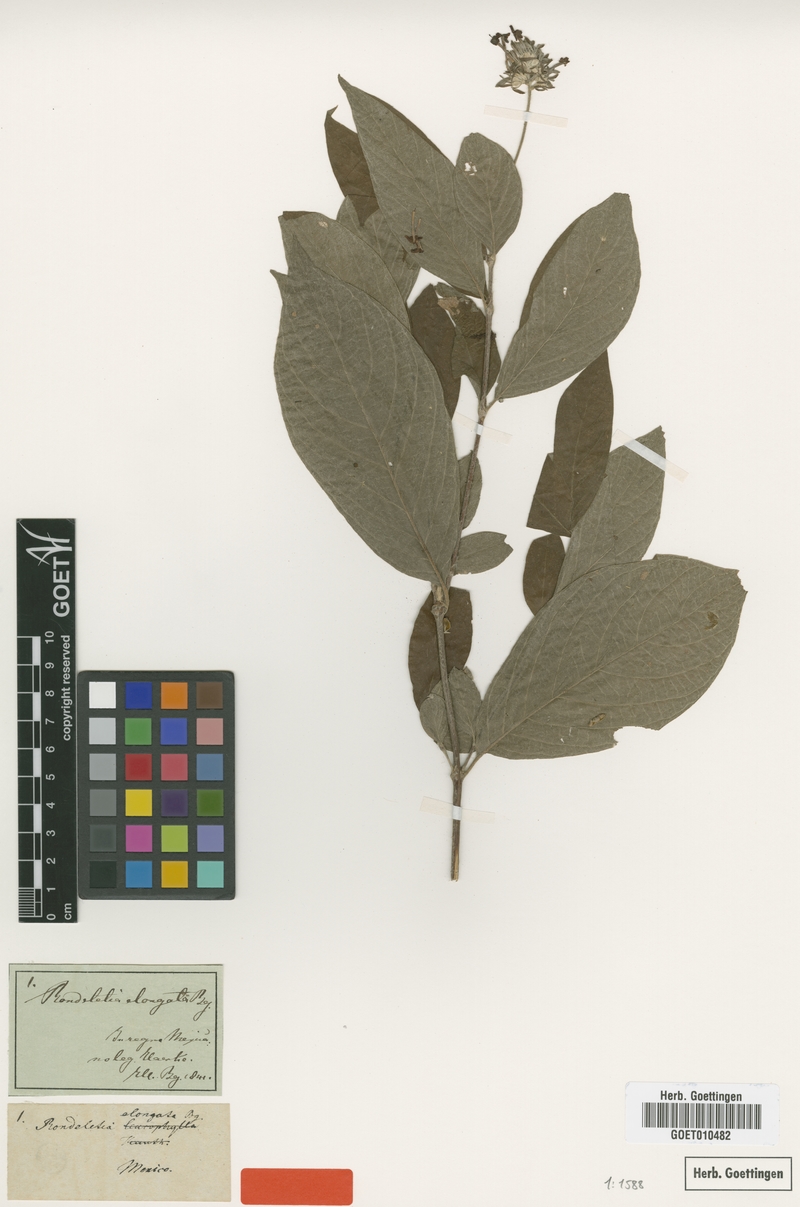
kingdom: Plantae
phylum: Tracheophyta
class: Magnoliopsida
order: Gentianales
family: Rubiaceae
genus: Arachnothryx
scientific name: Arachnothryx leucophylla
